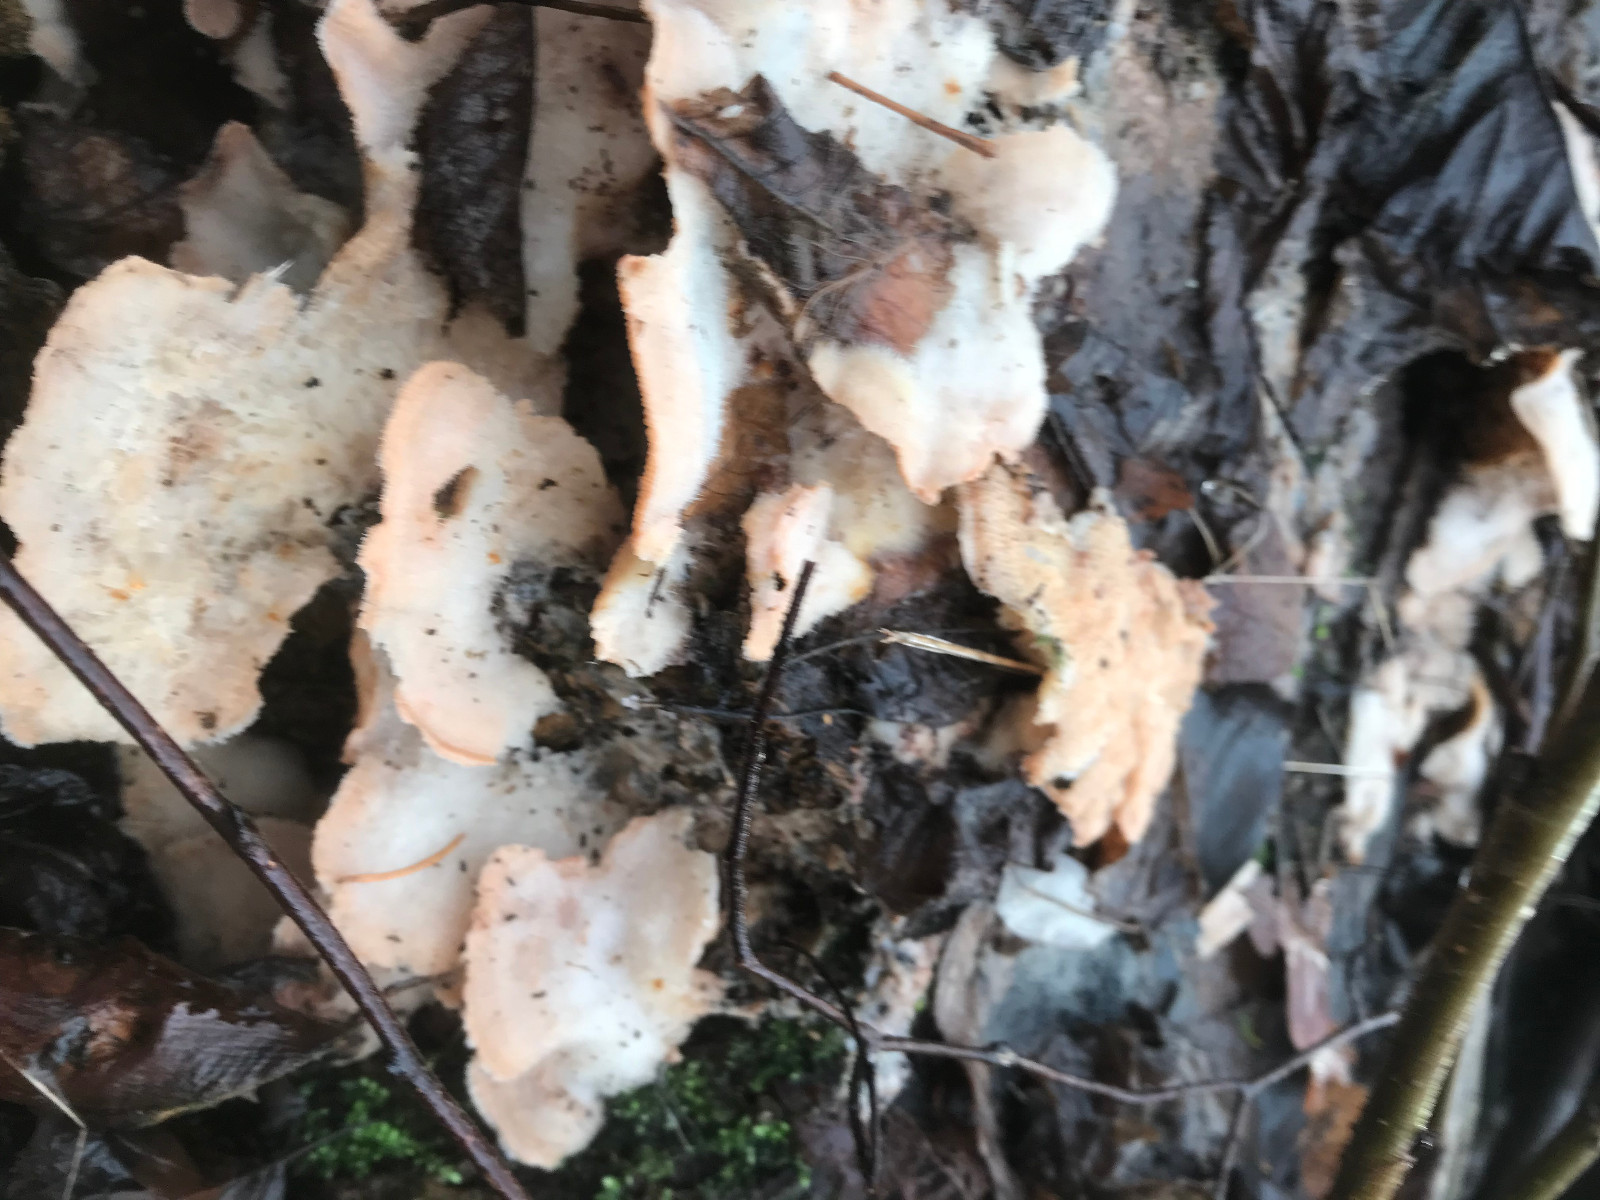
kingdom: Fungi
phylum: Basidiomycota
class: Agaricomycetes
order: Polyporales
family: Meruliaceae
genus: Phlebia
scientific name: Phlebia tremellosa
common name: bævrende åresvamp
